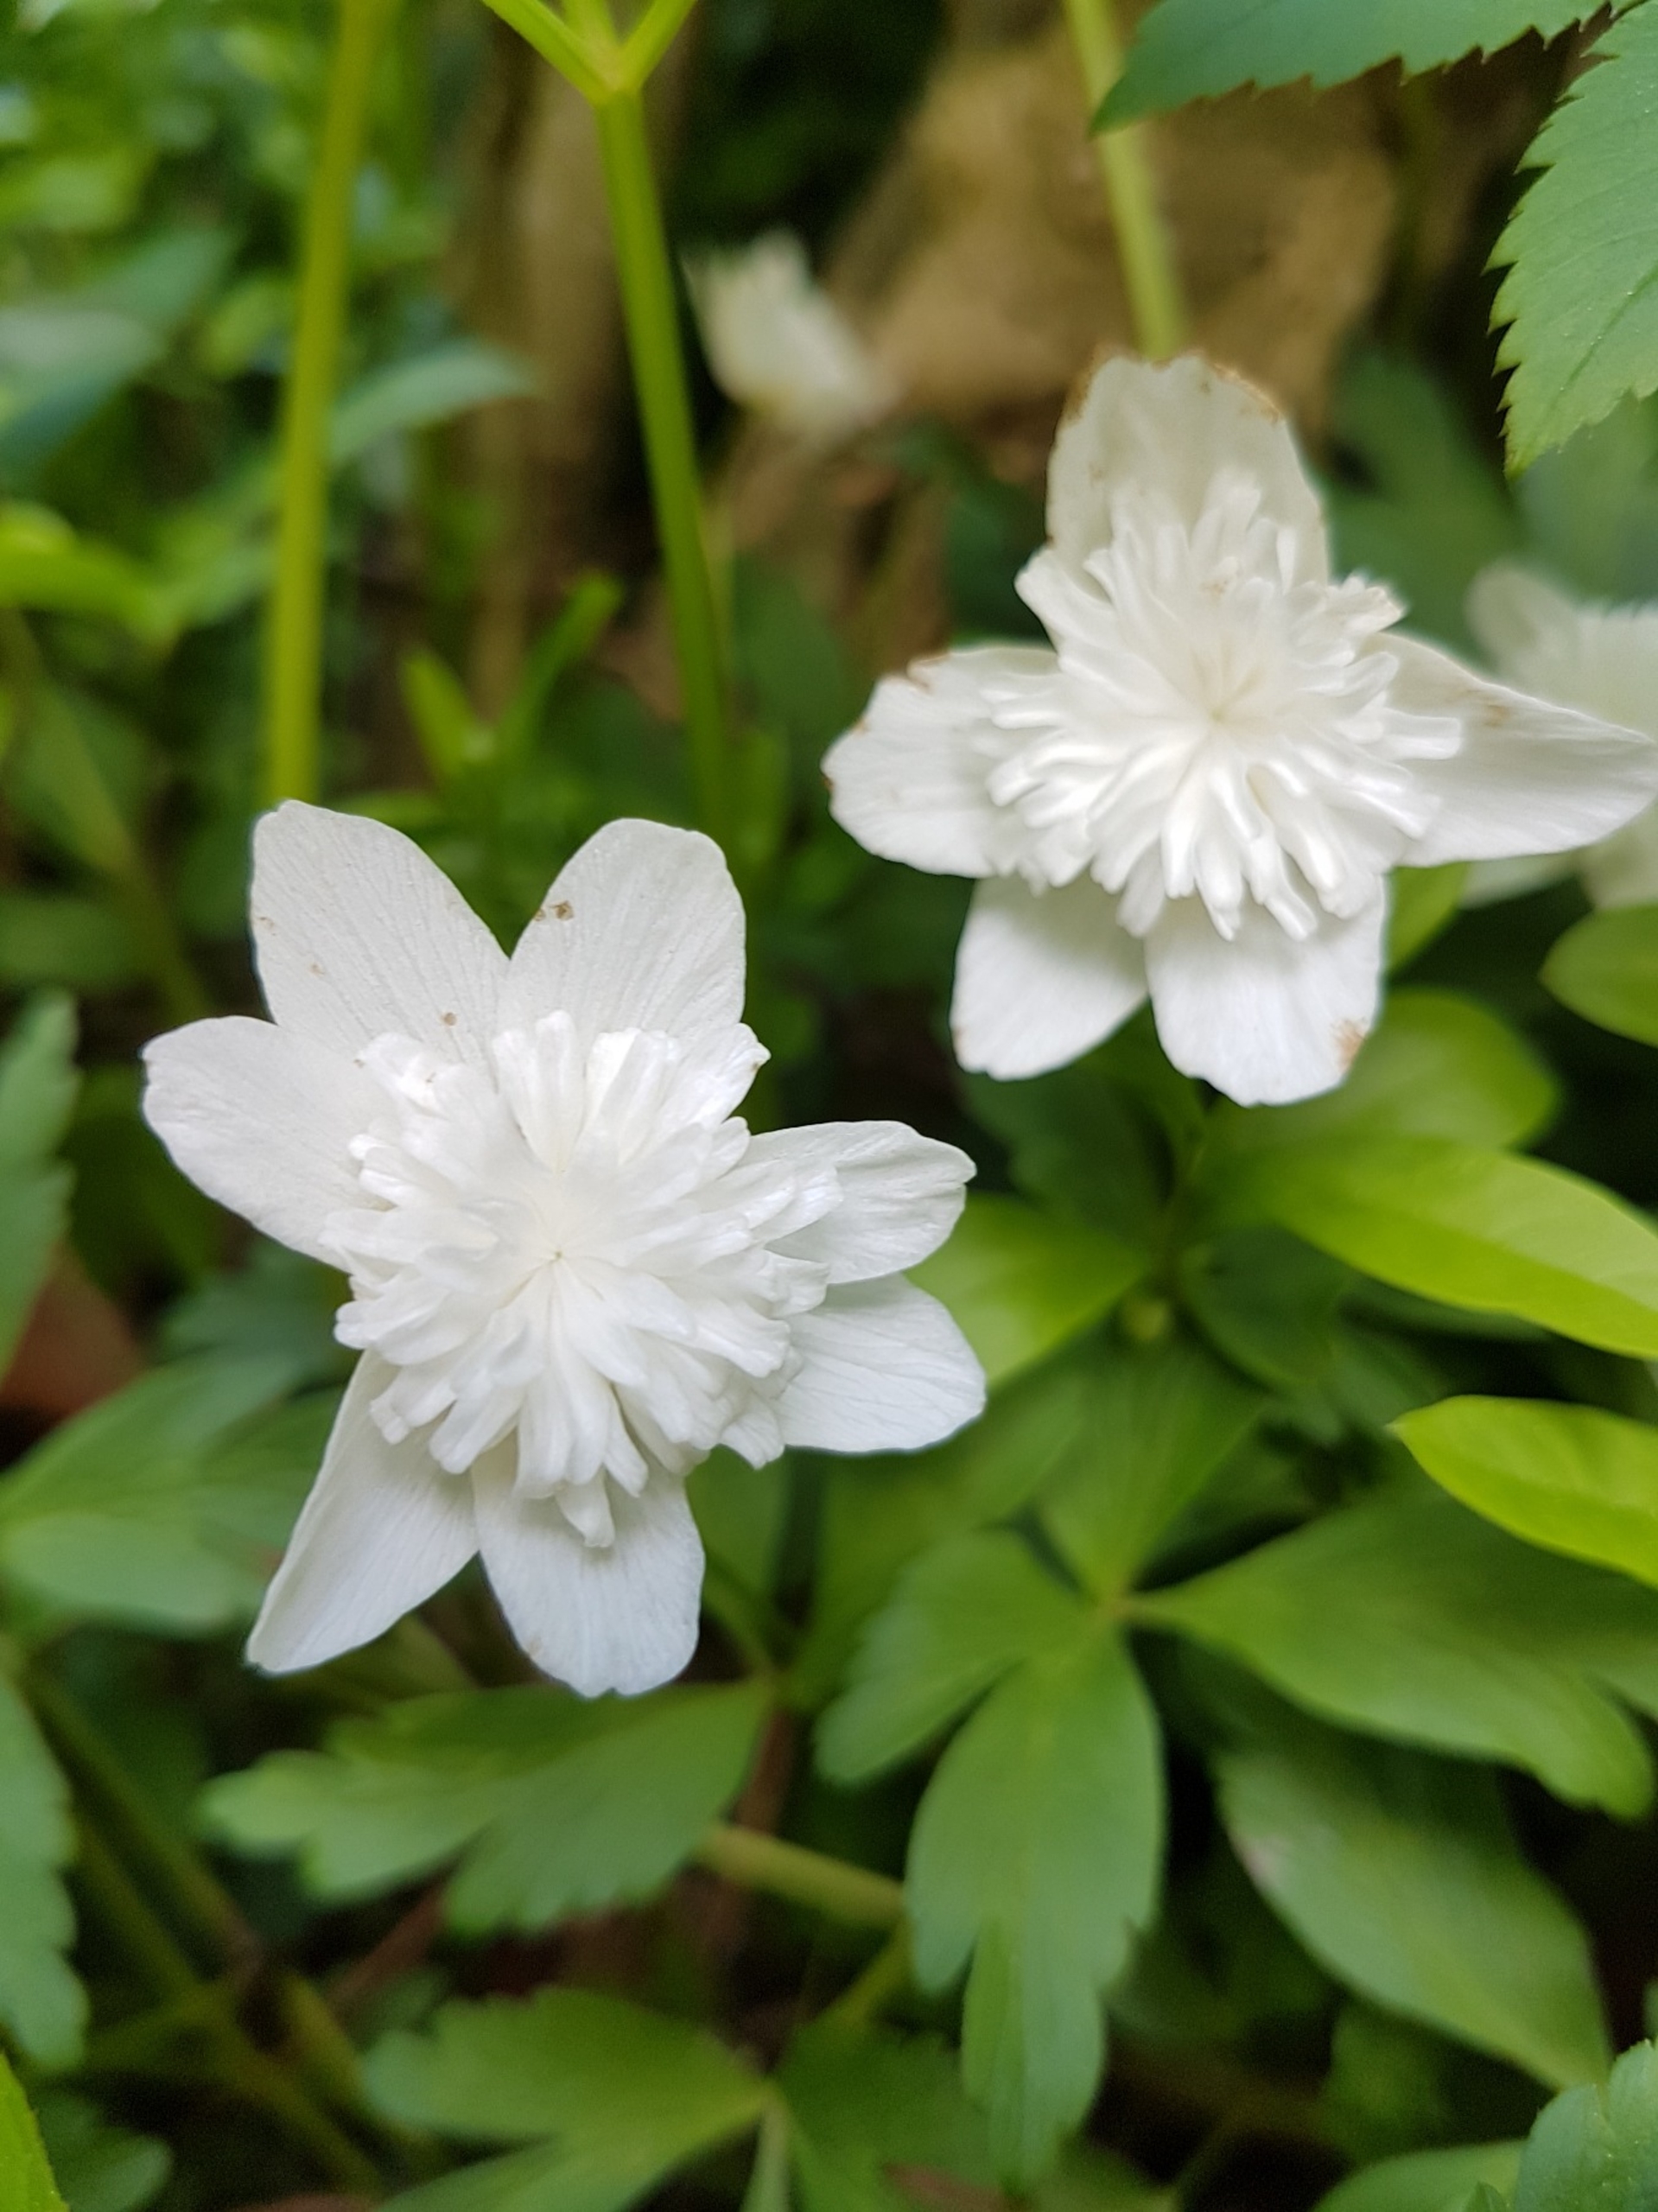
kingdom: Plantae
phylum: Tracheophyta
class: Magnoliopsida
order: Ranunculales
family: Ranunculaceae
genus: Anemone
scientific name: Anemone nemorosa
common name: Hvid anemone
